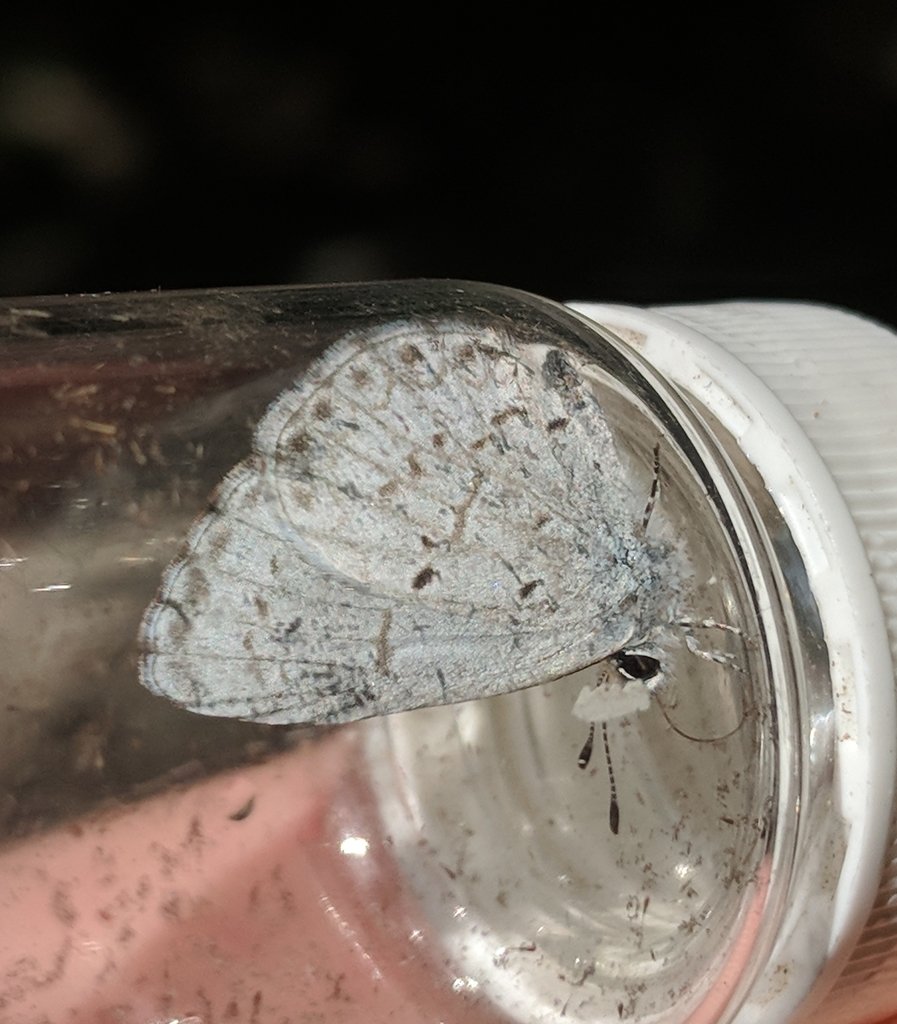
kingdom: Animalia
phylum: Arthropoda
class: Insecta
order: Lepidoptera
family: Lycaenidae
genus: Celastrina
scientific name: Celastrina lucia
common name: Northern Spring Azure
